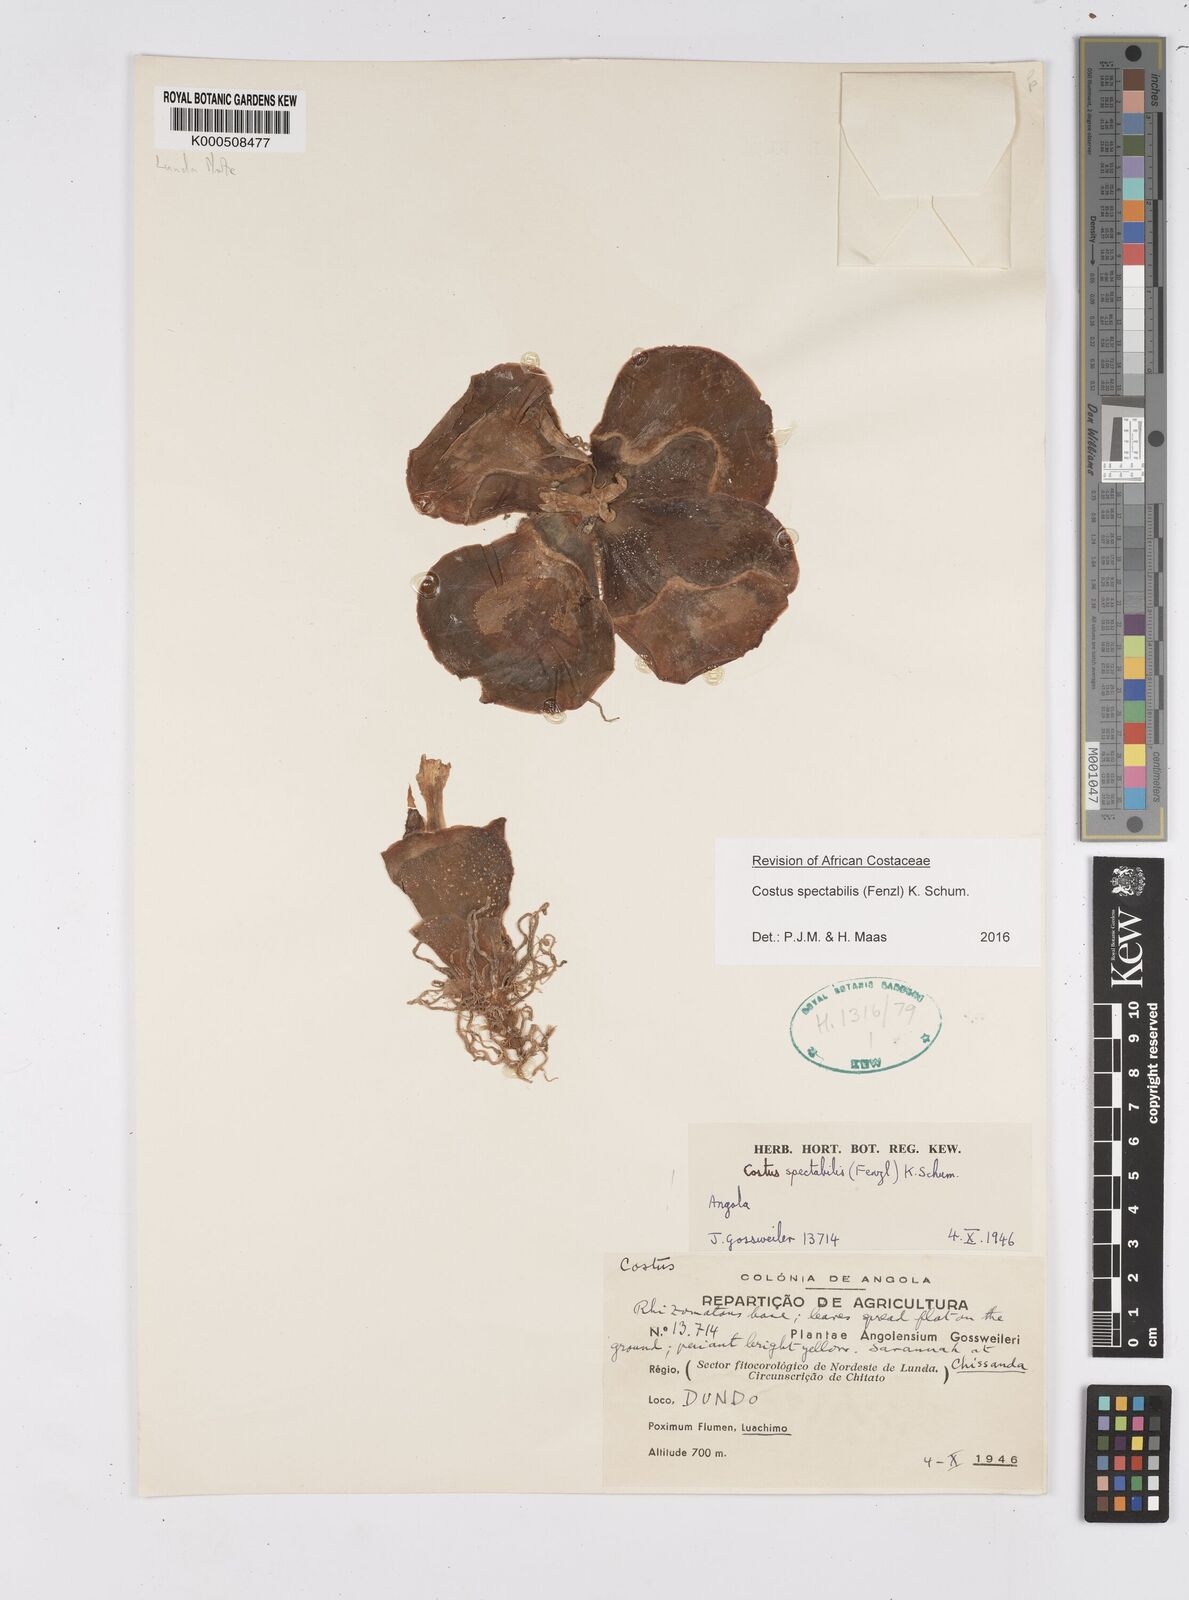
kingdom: Plantae
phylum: Tracheophyta
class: Liliopsida
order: Zingiberales
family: Costaceae
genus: Costus
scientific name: Costus spectabilis
